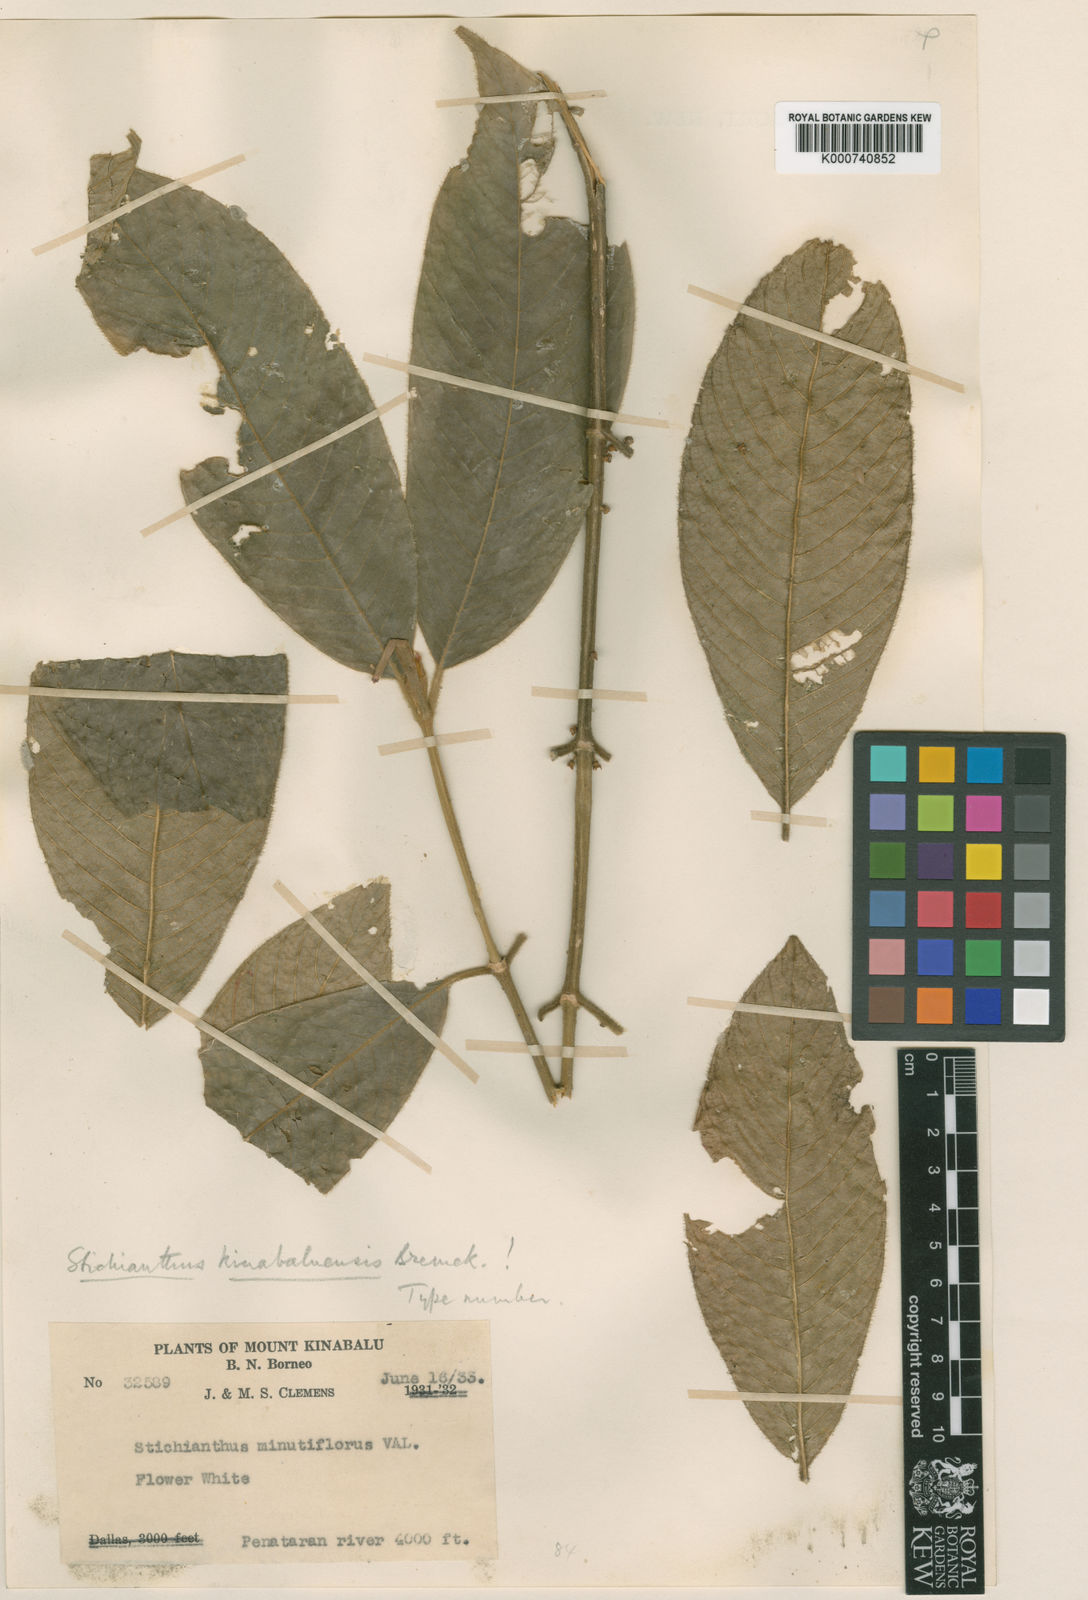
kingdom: Plantae
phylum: Tracheophyta
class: Magnoliopsida
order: Gentianales
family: Rubiaceae
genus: Stichianthus
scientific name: Stichianthus minutiflorus
